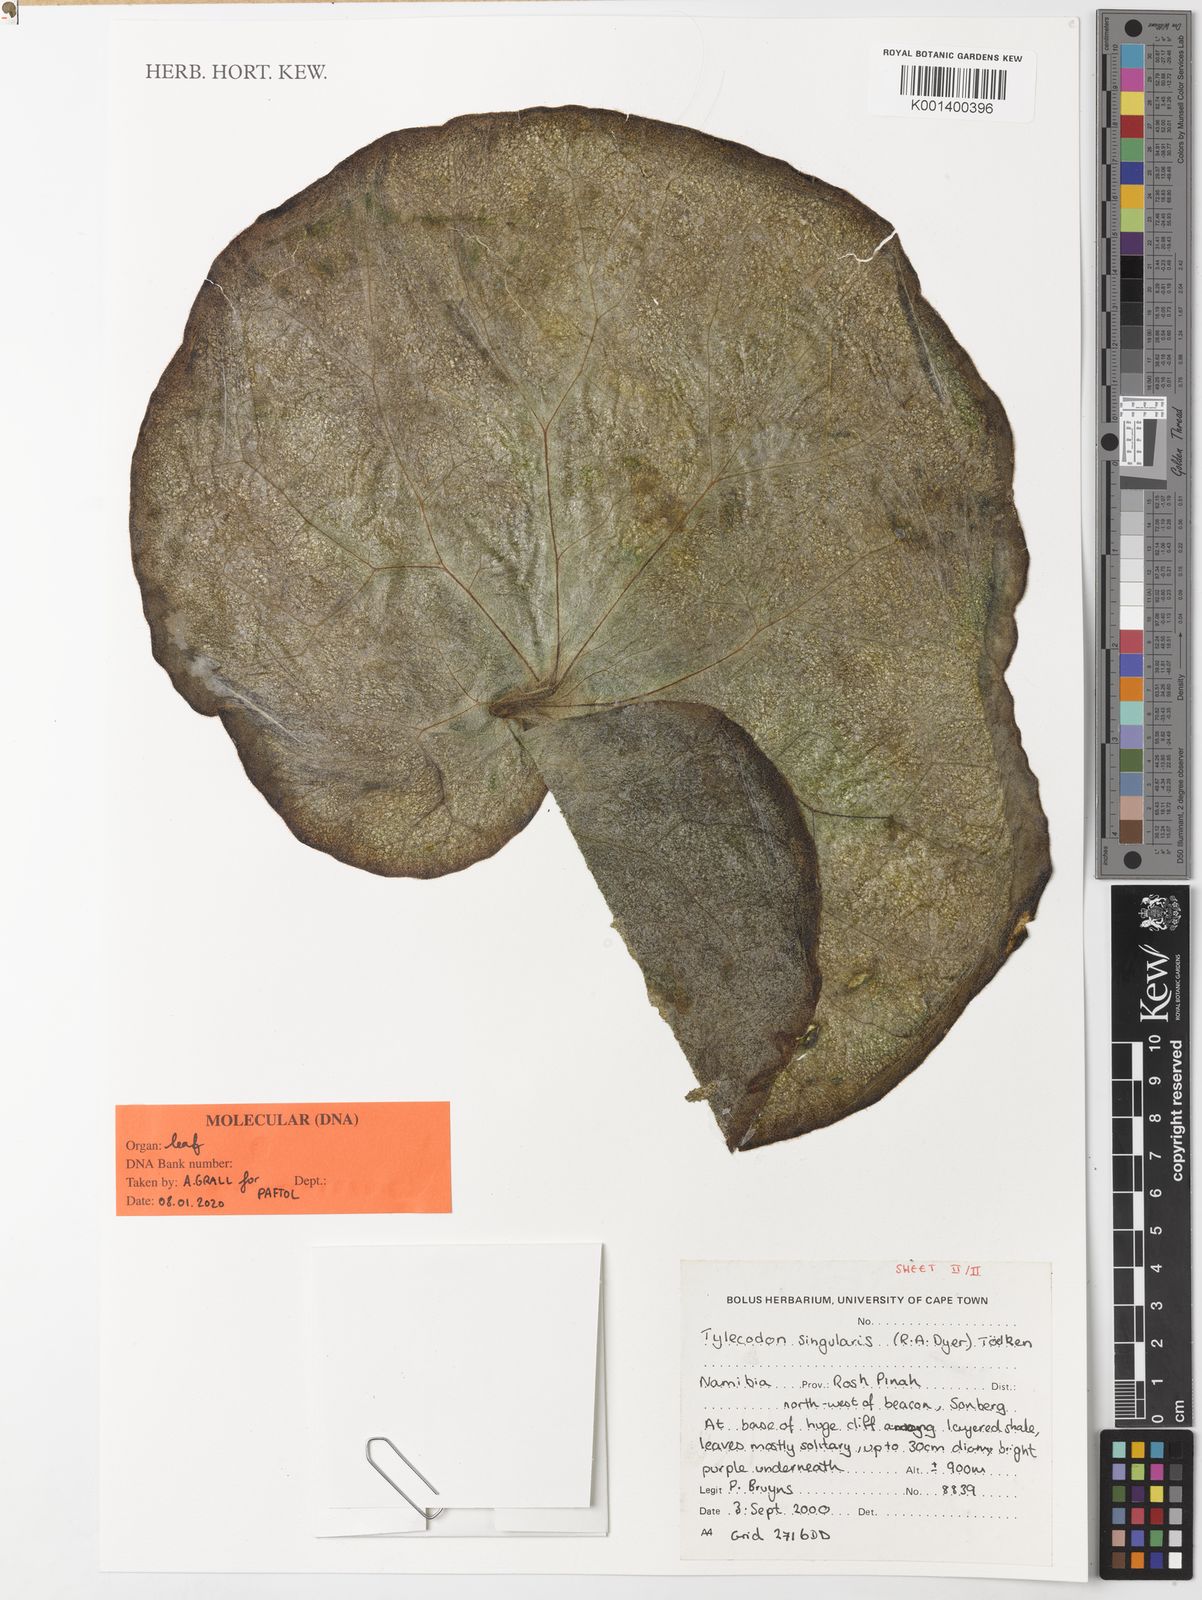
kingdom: Plantae
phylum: Tracheophyta
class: Magnoliopsida
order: Saxifragales
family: Crassulaceae
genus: Tylecodon
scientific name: Tylecodon singularis
